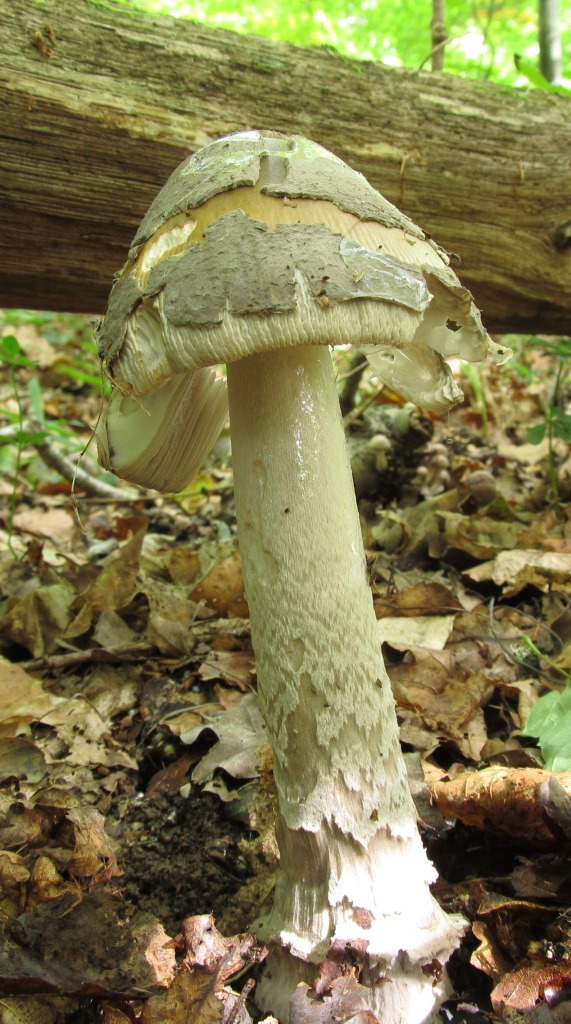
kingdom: Fungi
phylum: Basidiomycota
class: Agaricomycetes
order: Agaricales
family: Amanitaceae
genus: Amanita
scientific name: Amanita ceciliae
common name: stor kam-fluesvamp
